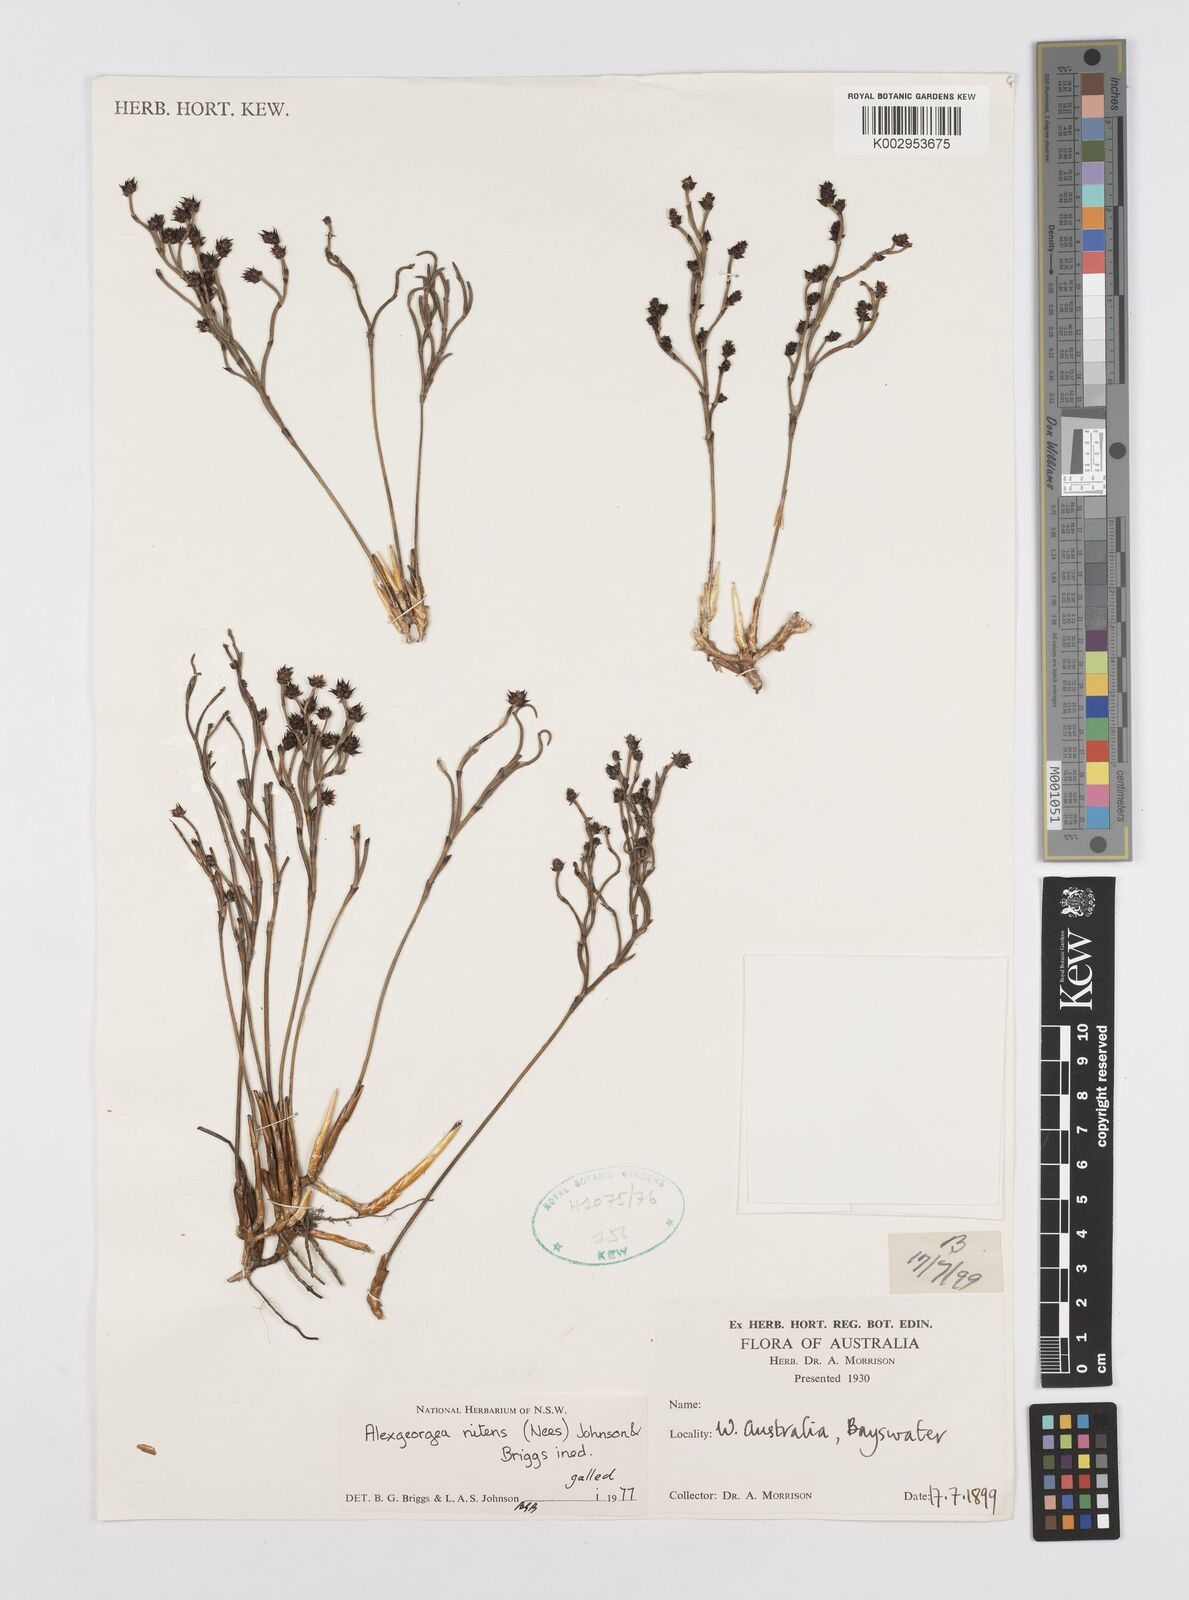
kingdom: Plantae
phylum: Tracheophyta
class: Liliopsida
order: Poales
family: Restionaceae
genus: Alexgeorgea
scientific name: Alexgeorgea nitens
